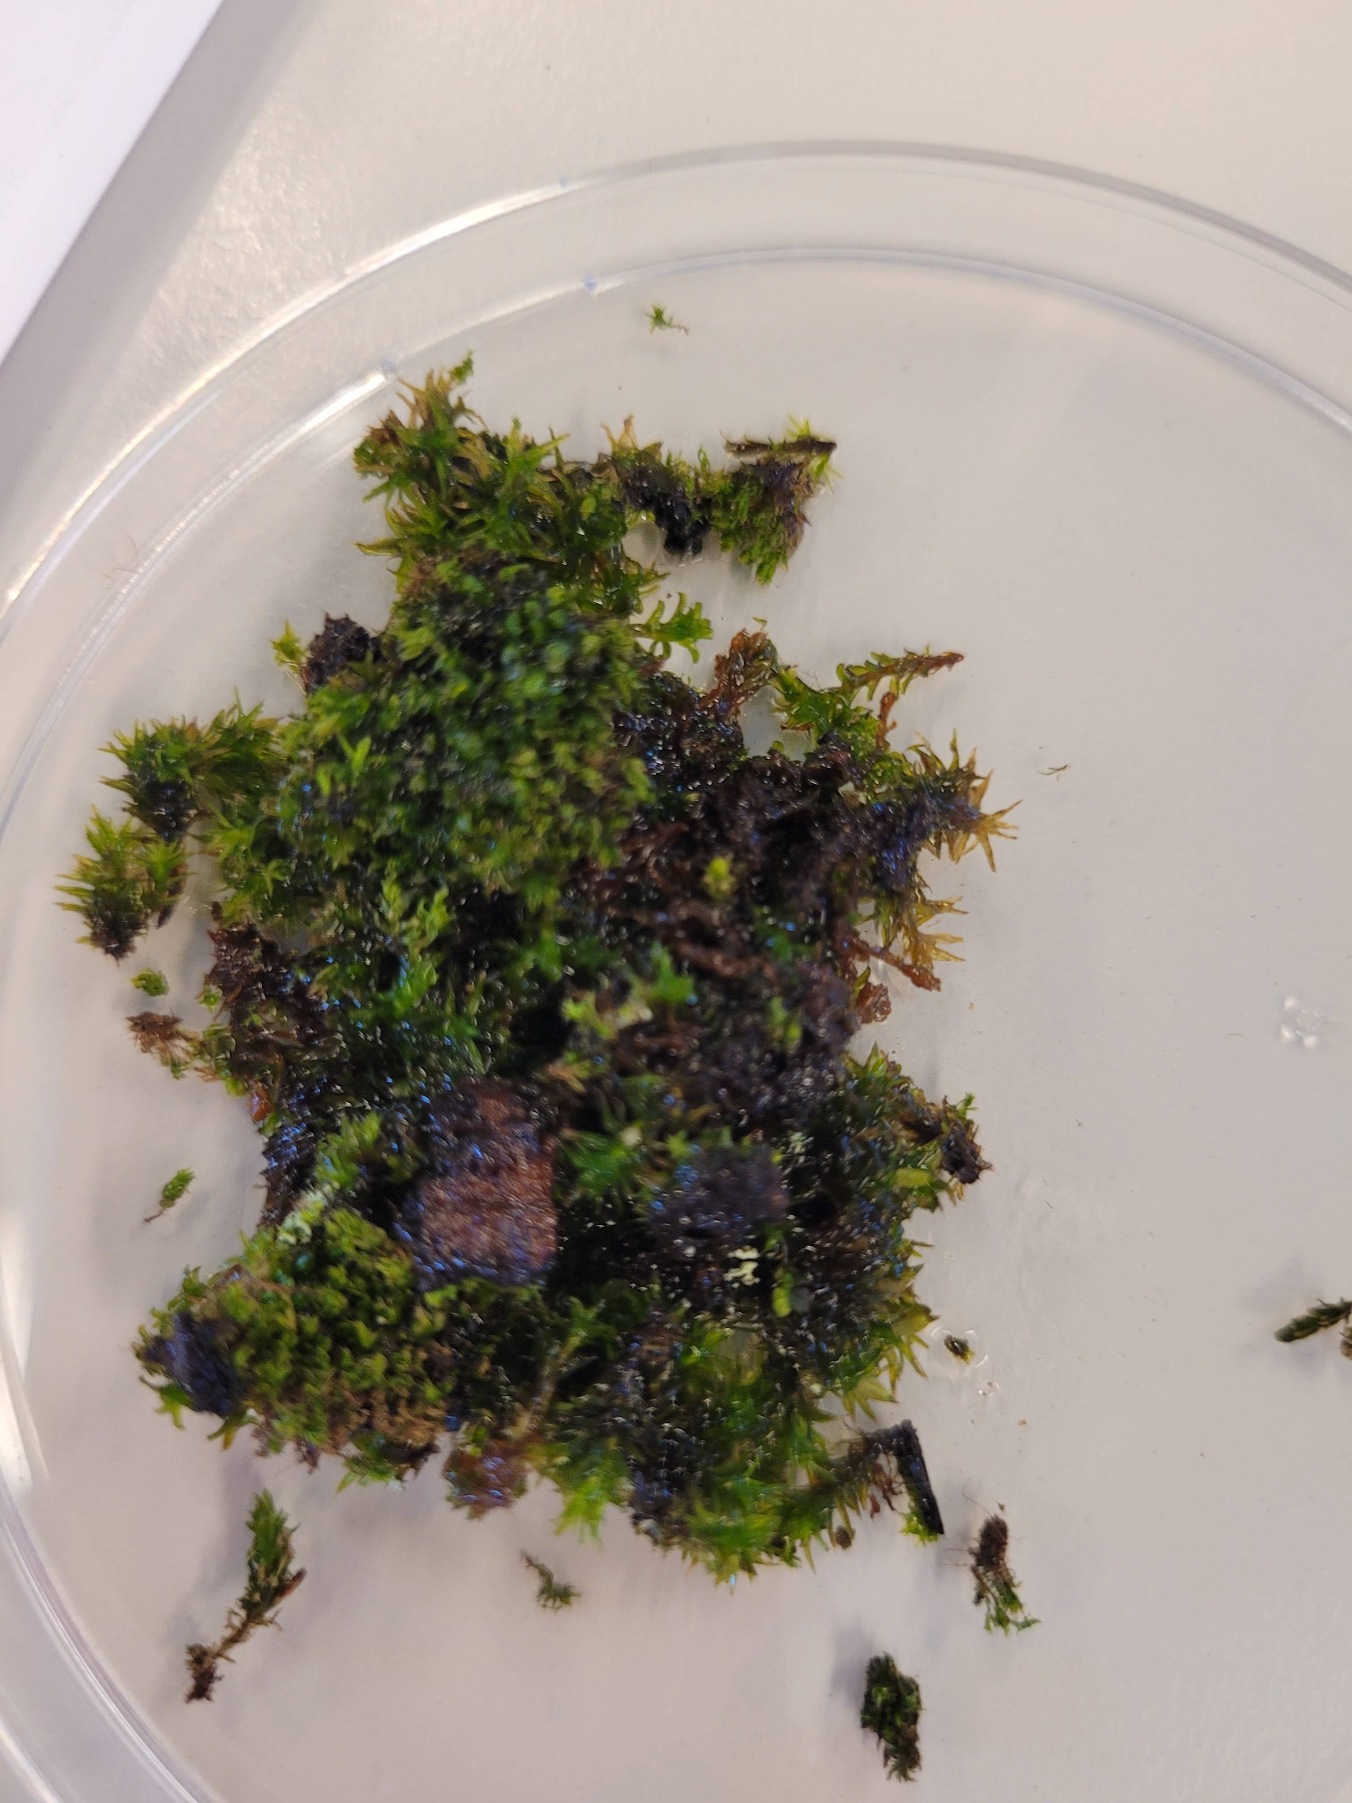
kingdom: Plantae
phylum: Bryophyta
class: Bryopsida
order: Orthotrichales
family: Orthotrichaceae
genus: Lewinskya
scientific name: Lewinskya affinis
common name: Almindelig furehætte
